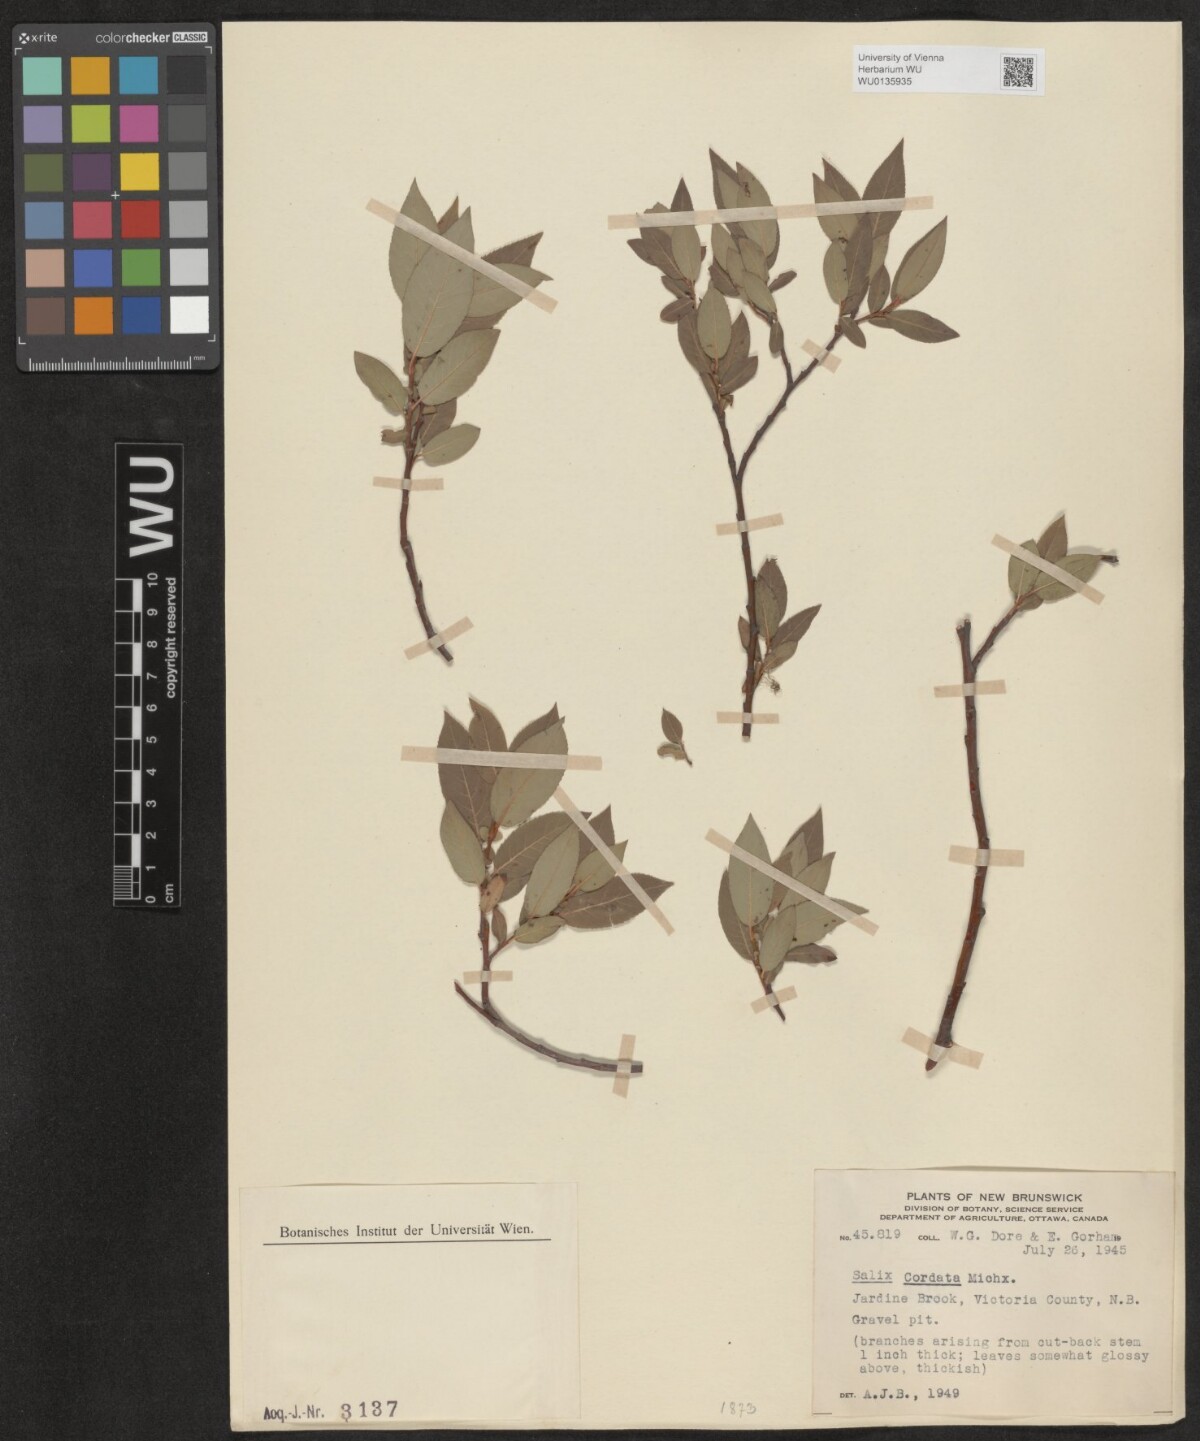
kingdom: Plantae
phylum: Tracheophyta
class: Magnoliopsida
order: Malpighiales
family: Salicaceae
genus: Salix
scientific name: Salix cordata
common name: Heart-leaf willow
